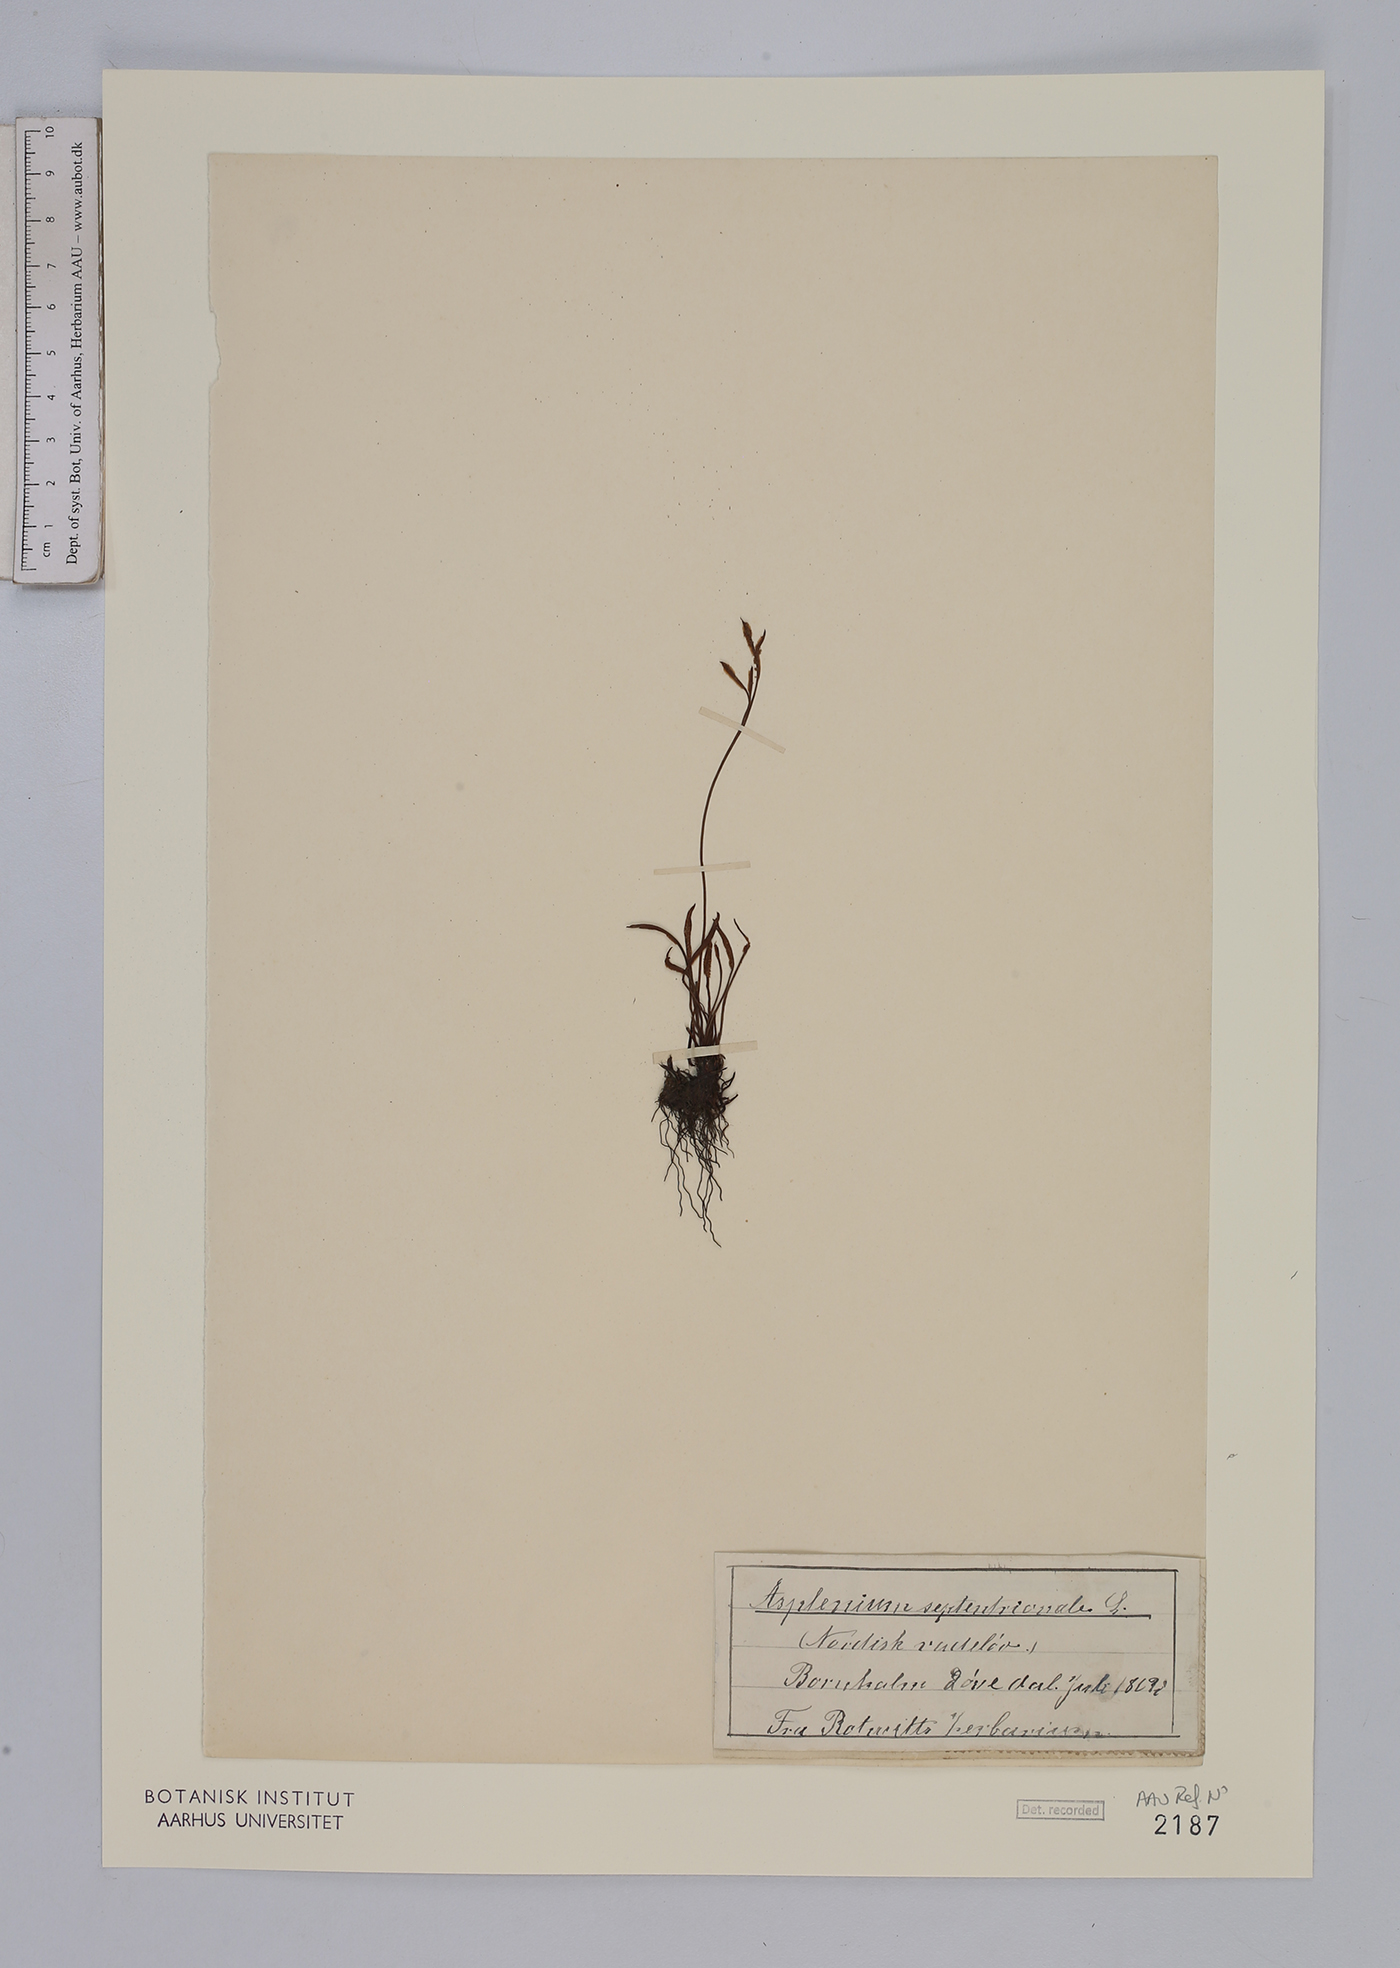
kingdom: Plantae
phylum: Tracheophyta
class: Polypodiopsida
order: Polypodiales
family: Aspleniaceae
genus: Asplenium
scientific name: Asplenium septentrionale
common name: Forked spleenwort
